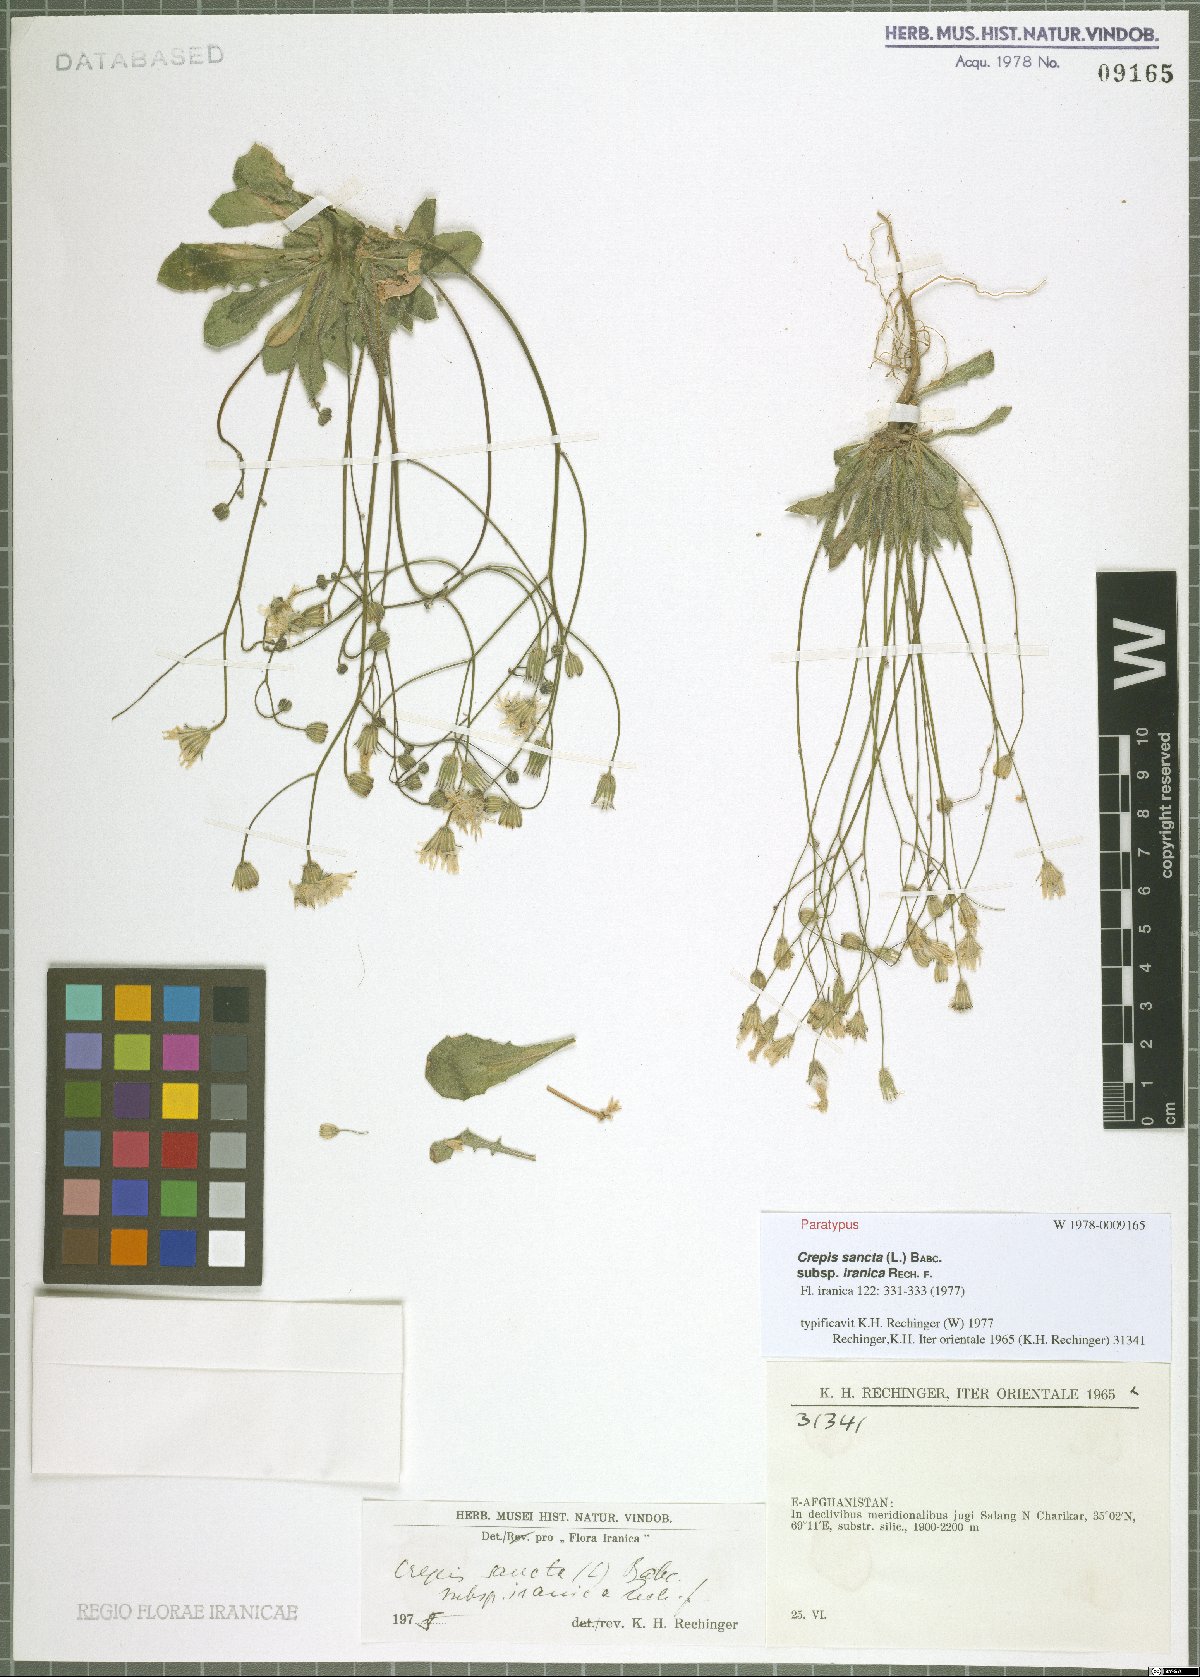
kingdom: Plantae
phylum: Tracheophyta
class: Magnoliopsida
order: Asterales
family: Asteraceae
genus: Crepis
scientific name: Crepis sancta
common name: Hawk's-beard
